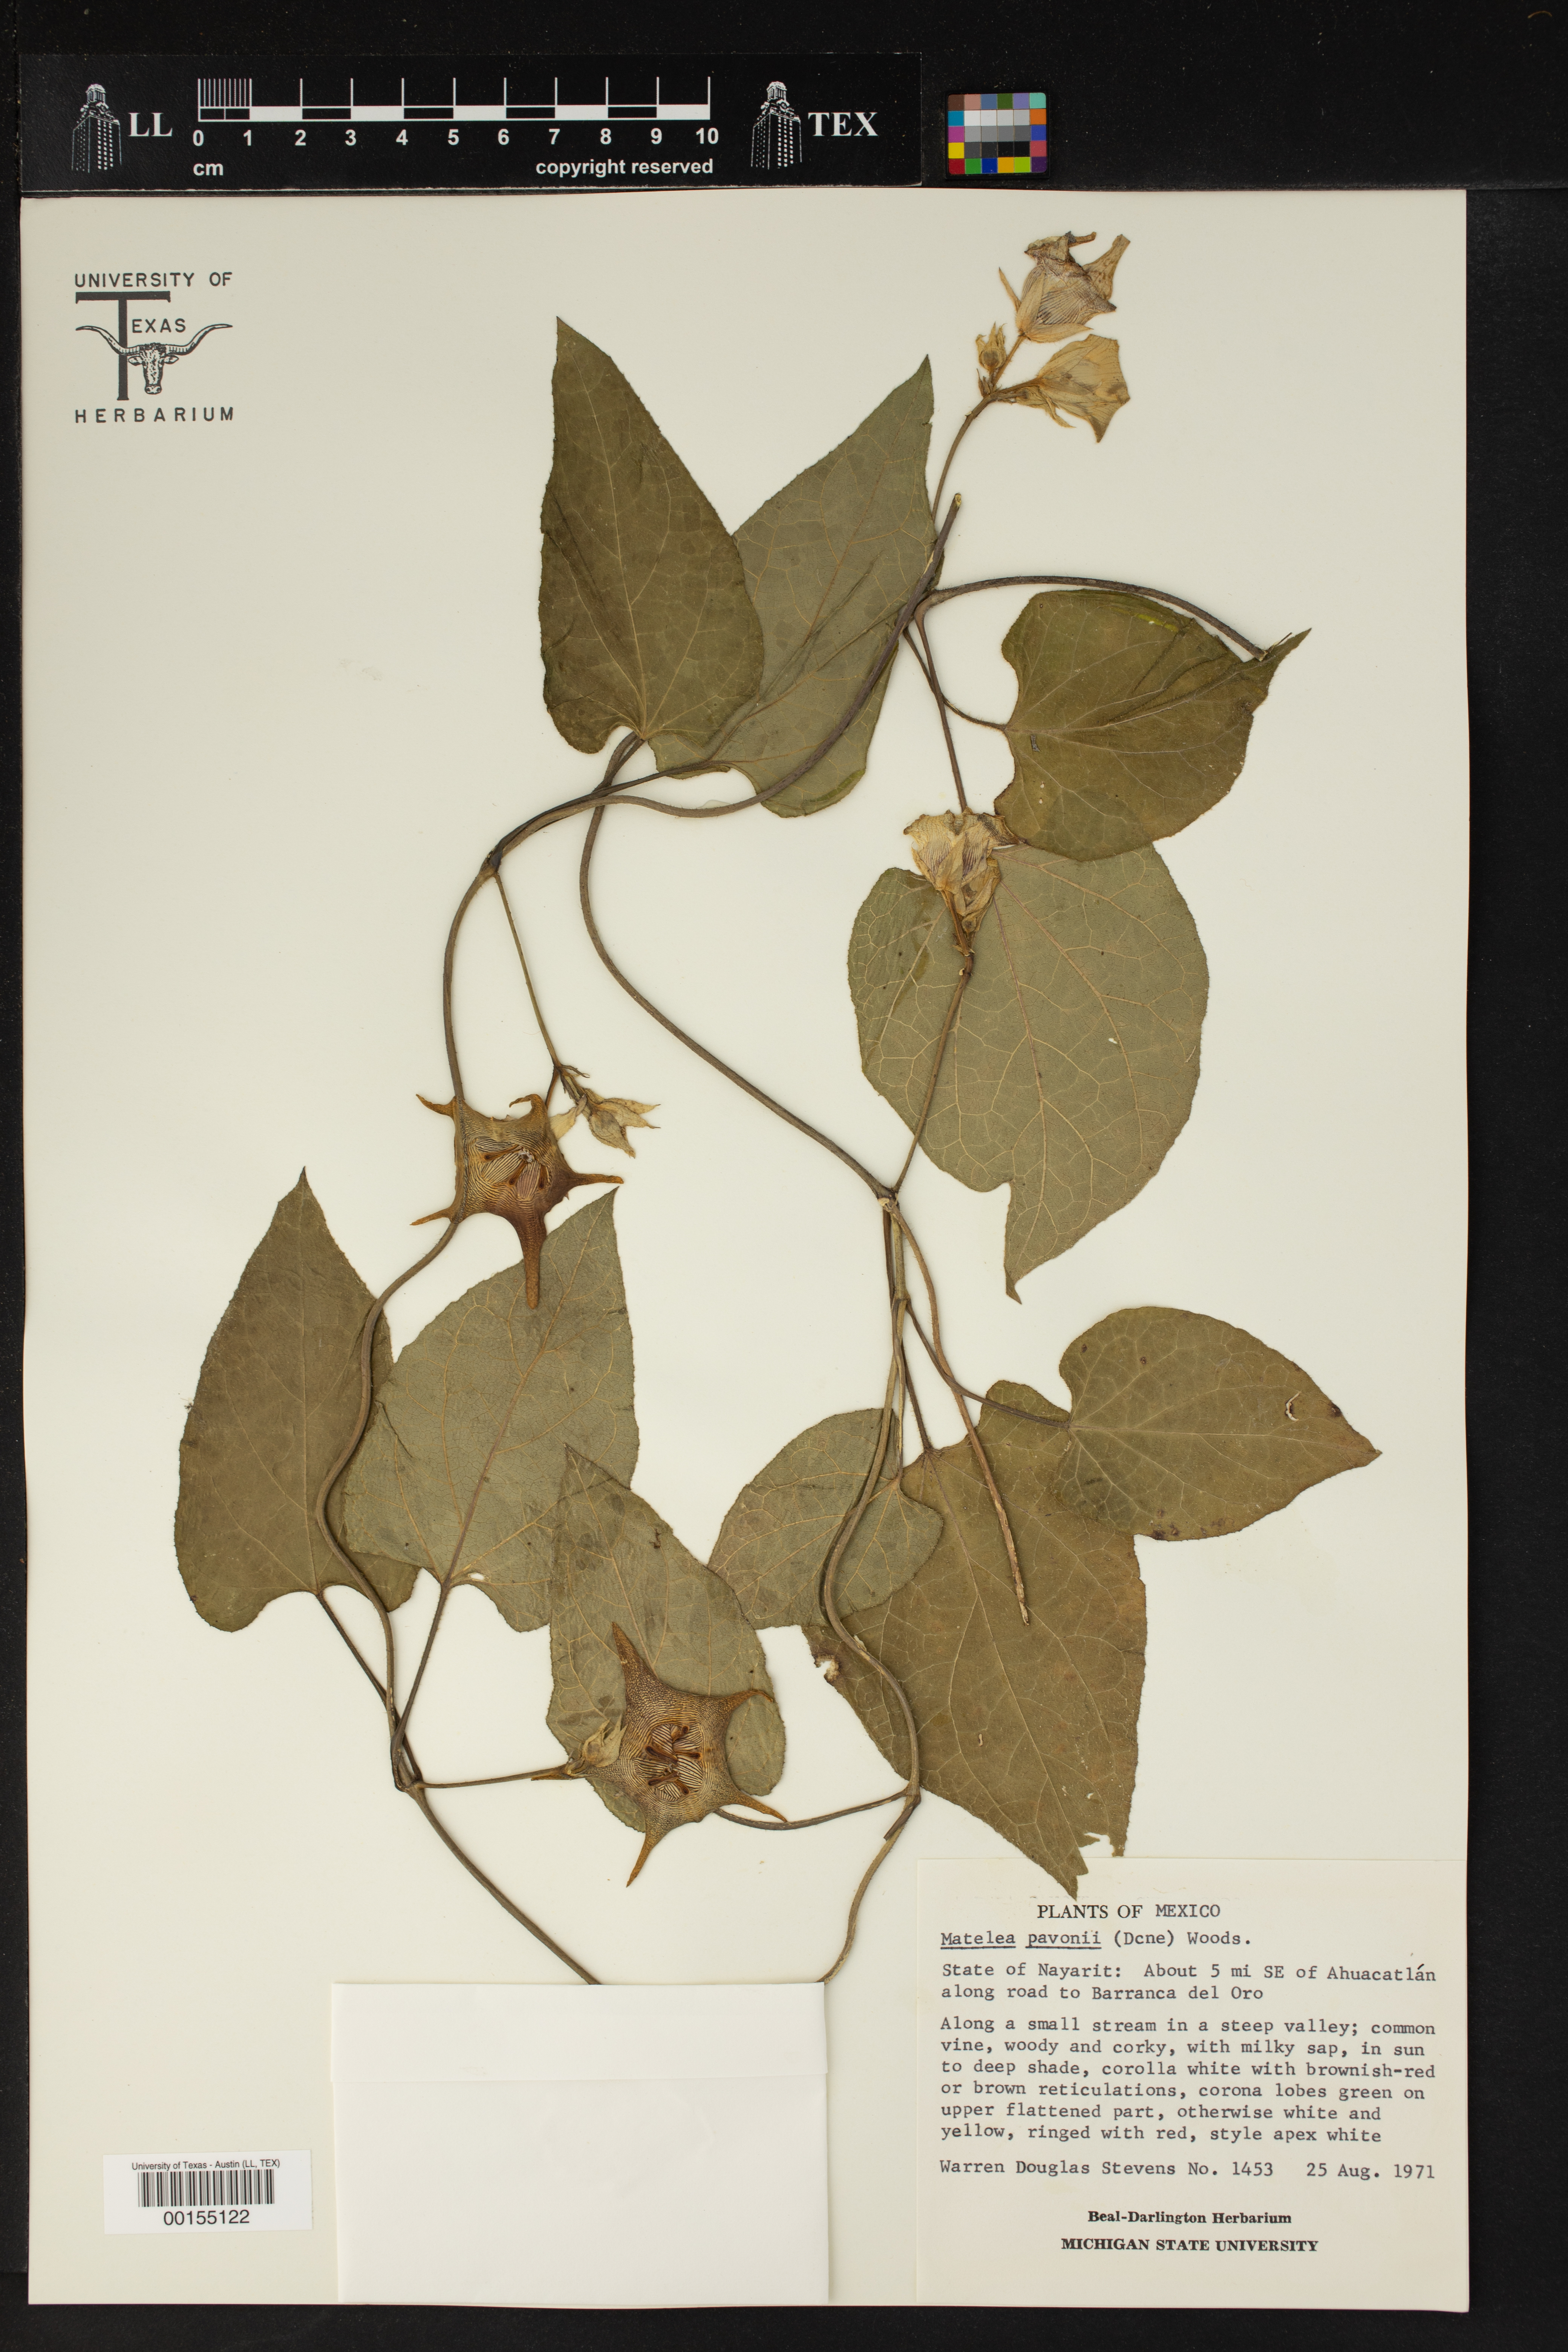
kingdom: Plantae
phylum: Tracheophyta
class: Magnoliopsida
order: Gentianales
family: Apocynaceae
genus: Dictyanthus
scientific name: Dictyanthus pavonii
